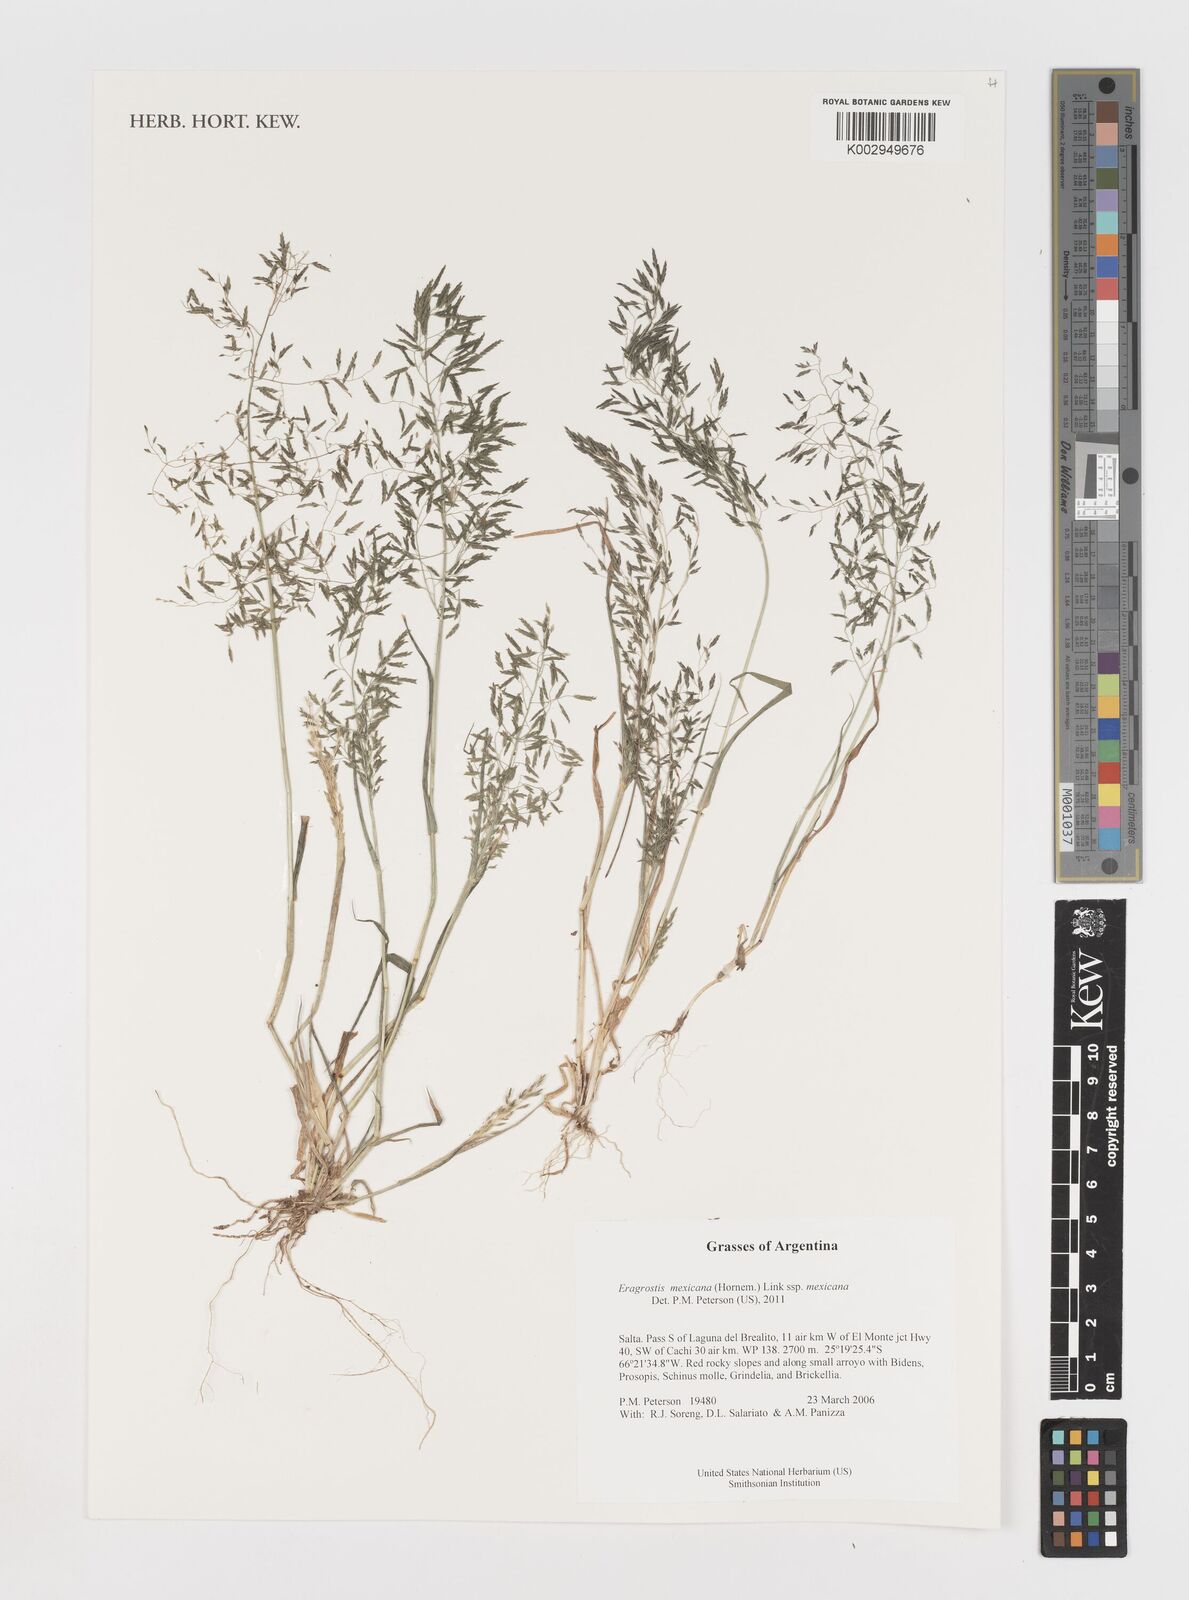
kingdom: Plantae
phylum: Tracheophyta
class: Liliopsida
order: Poales
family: Poaceae
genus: Eragrostis
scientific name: Eragrostis mexicana
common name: Mexican love grass
